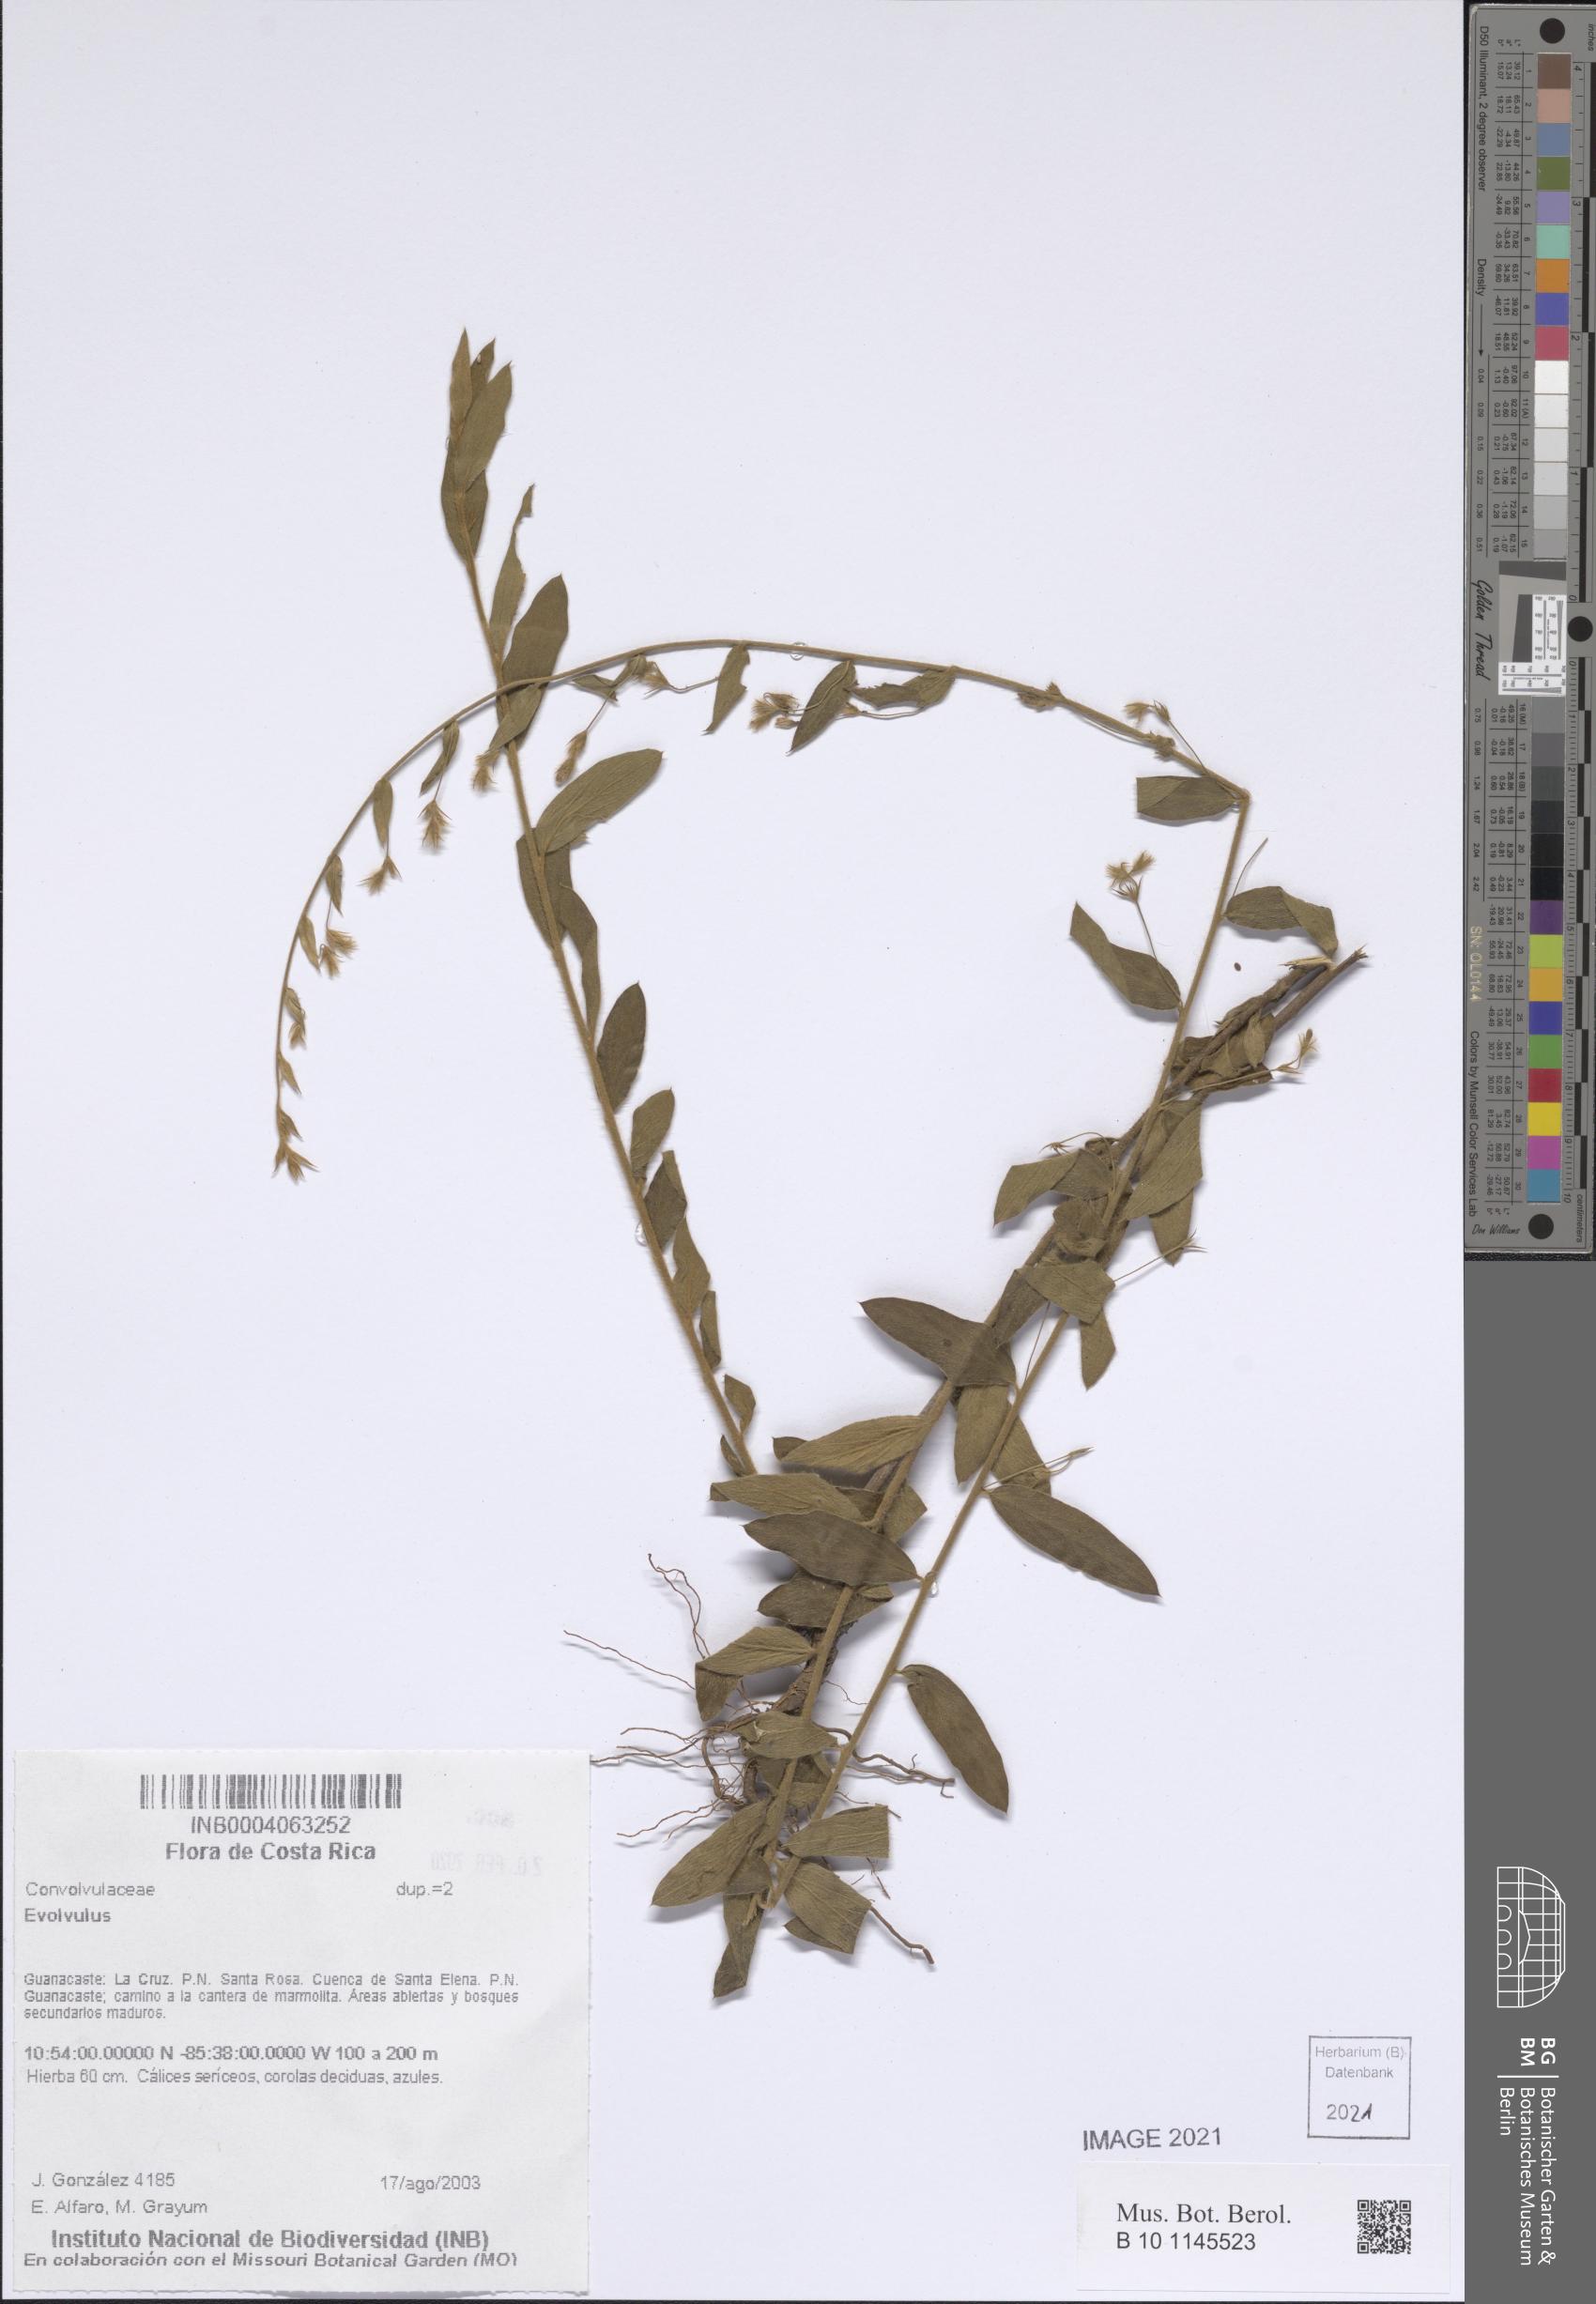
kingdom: Plantae
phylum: Tracheophyta
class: Magnoliopsida
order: Solanales
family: Convolvulaceae
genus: Evolvulus
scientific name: Evolvulus
